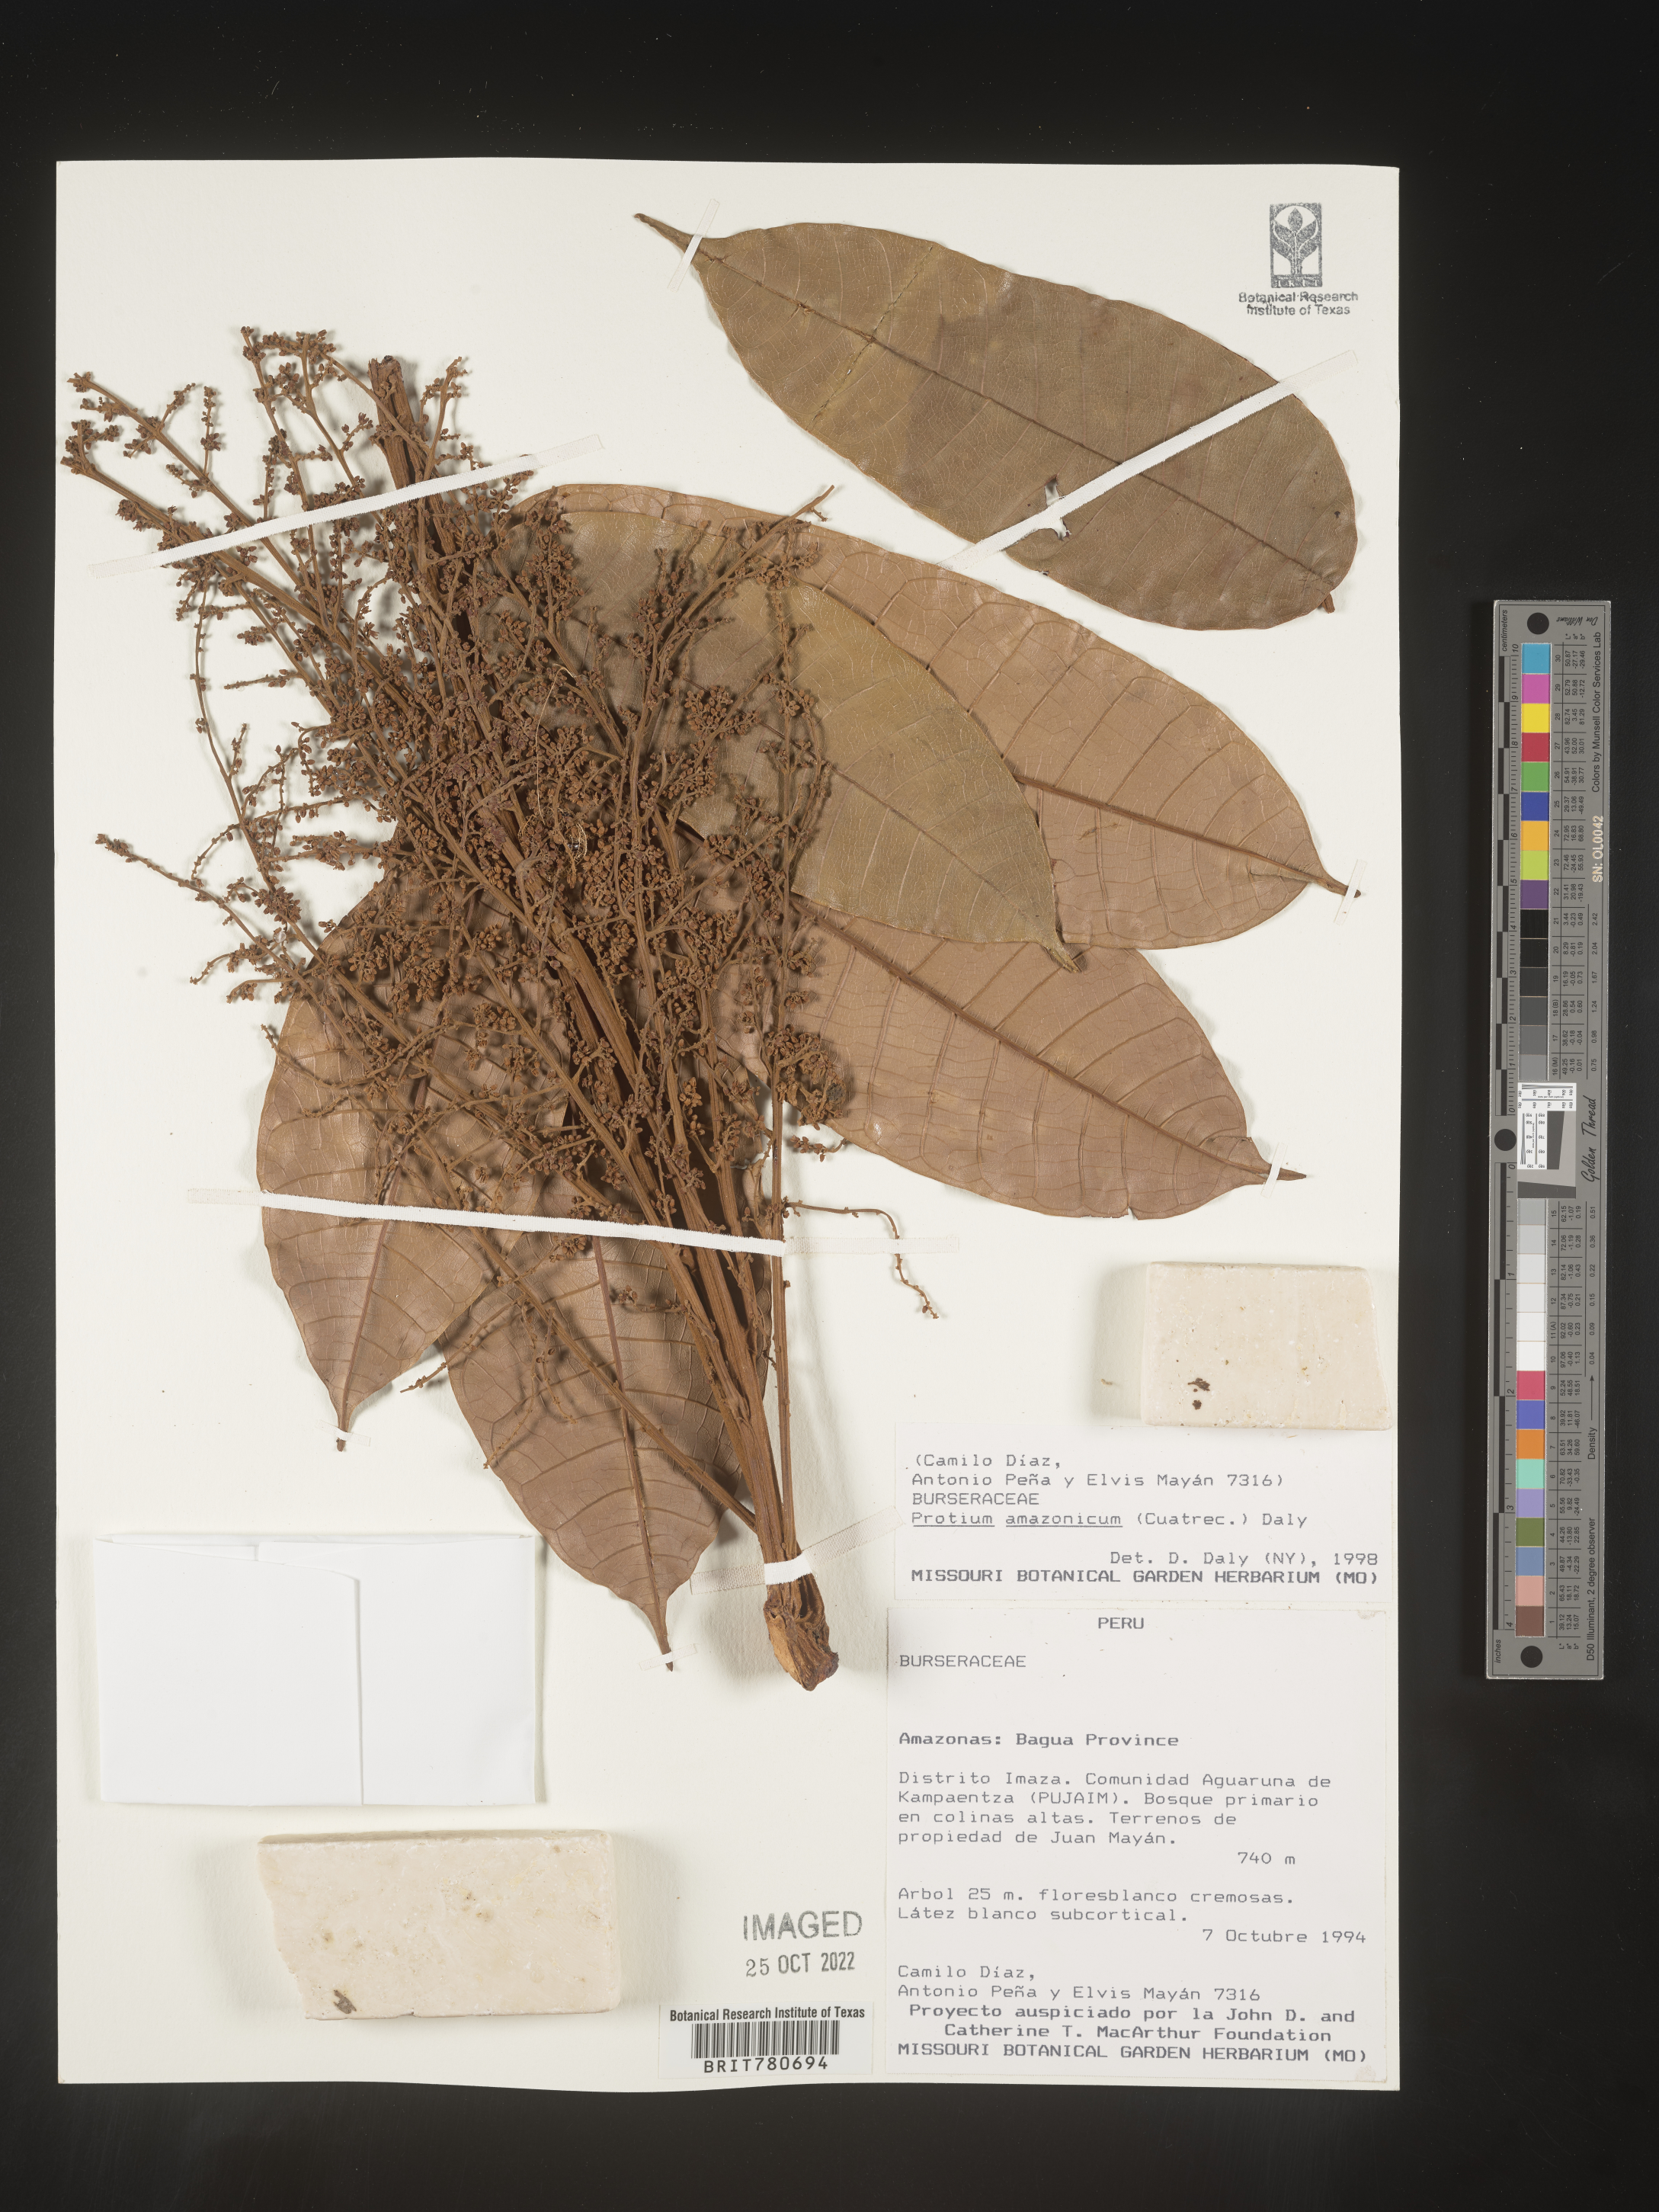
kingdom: Plantae
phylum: Tracheophyta
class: Magnoliopsida
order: Sapindales
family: Burseraceae
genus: Protium
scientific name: Protium
